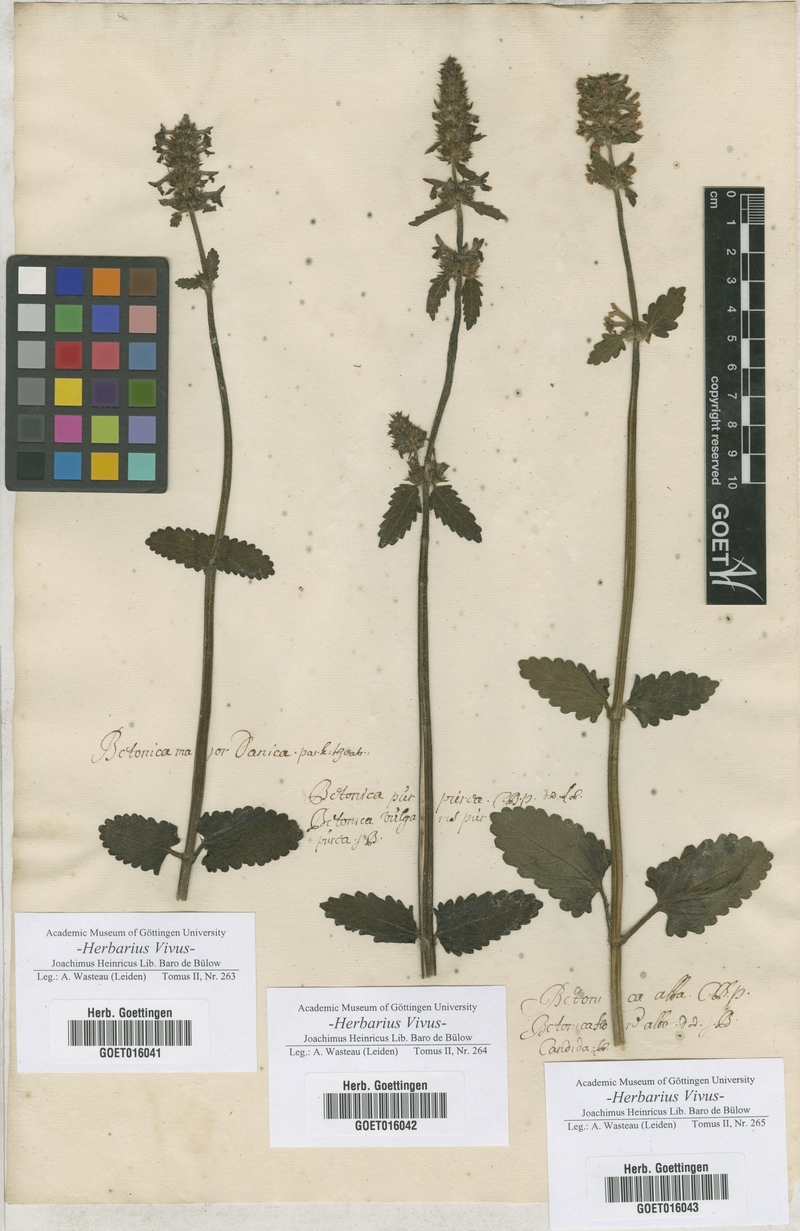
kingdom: Plantae
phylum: Tracheophyta
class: Magnoliopsida
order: Lamiales
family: Lamiaceae
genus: Betonica
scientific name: Betonica
